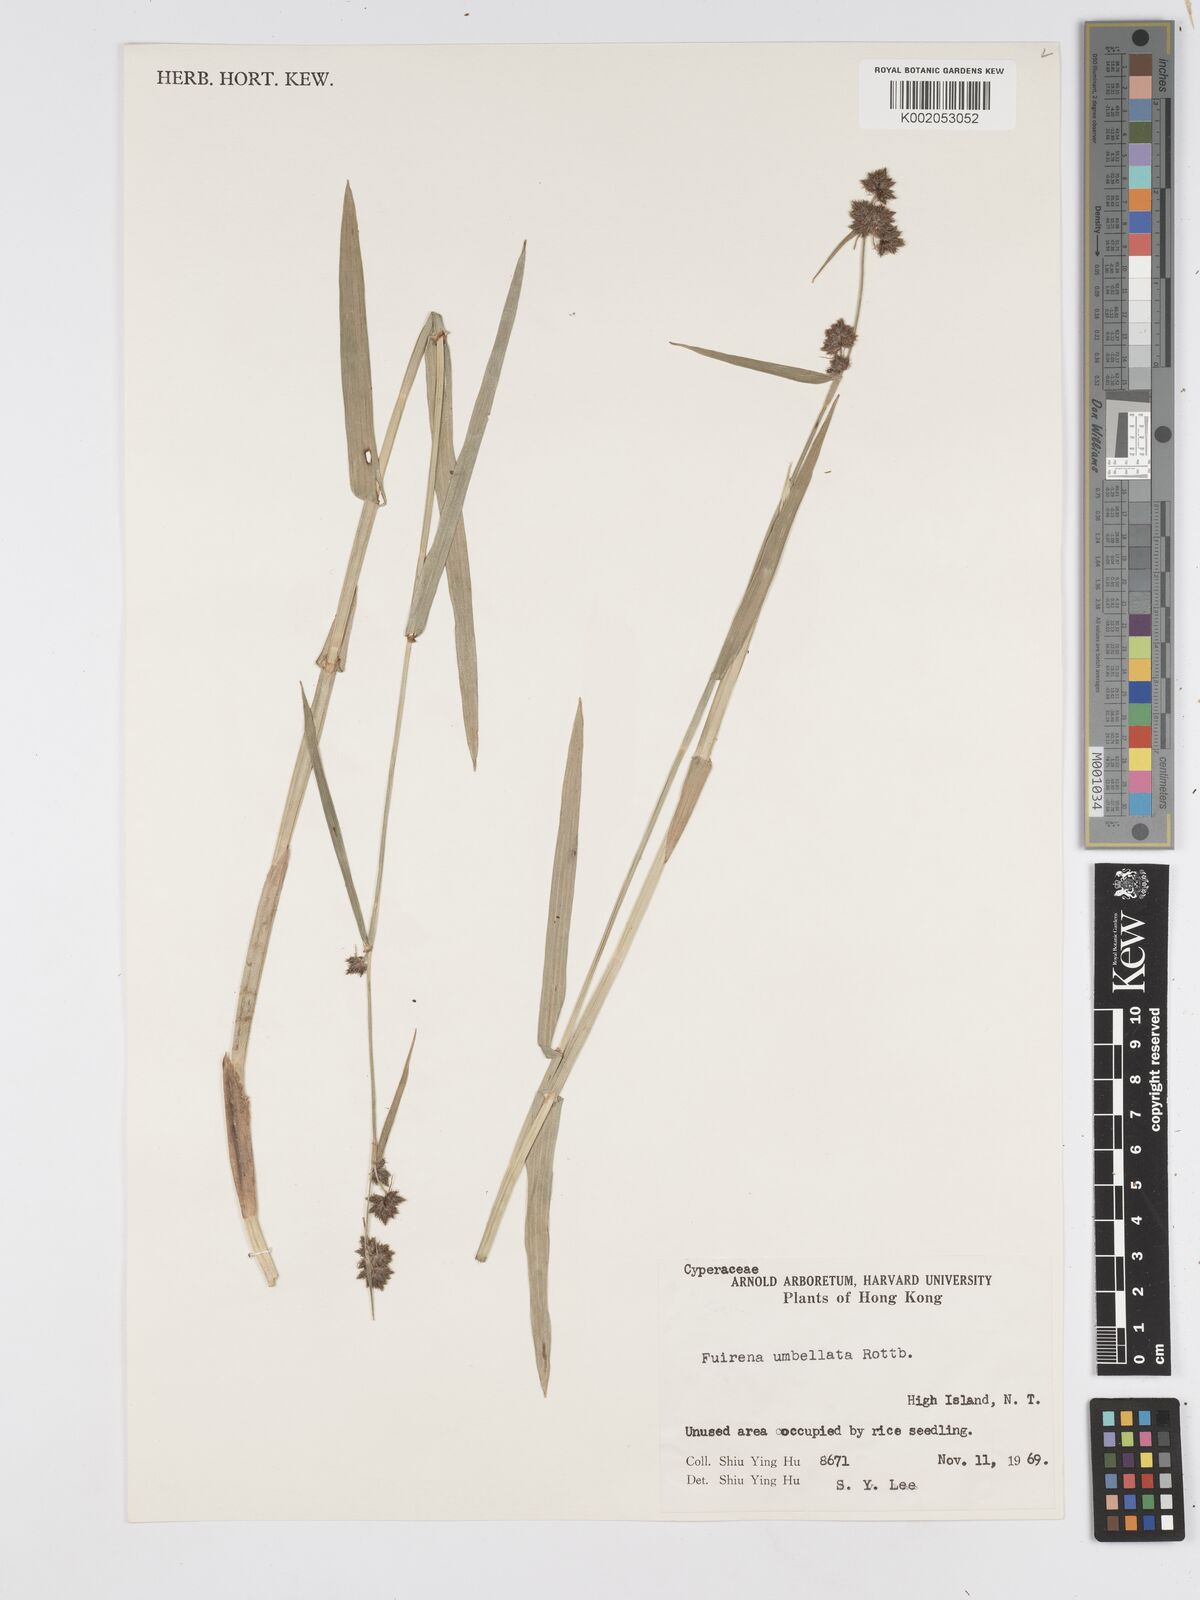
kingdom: Plantae
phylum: Tracheophyta
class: Liliopsida
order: Poales
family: Cyperaceae
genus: Fuirena
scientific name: Fuirena umbellata
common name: Yefen
